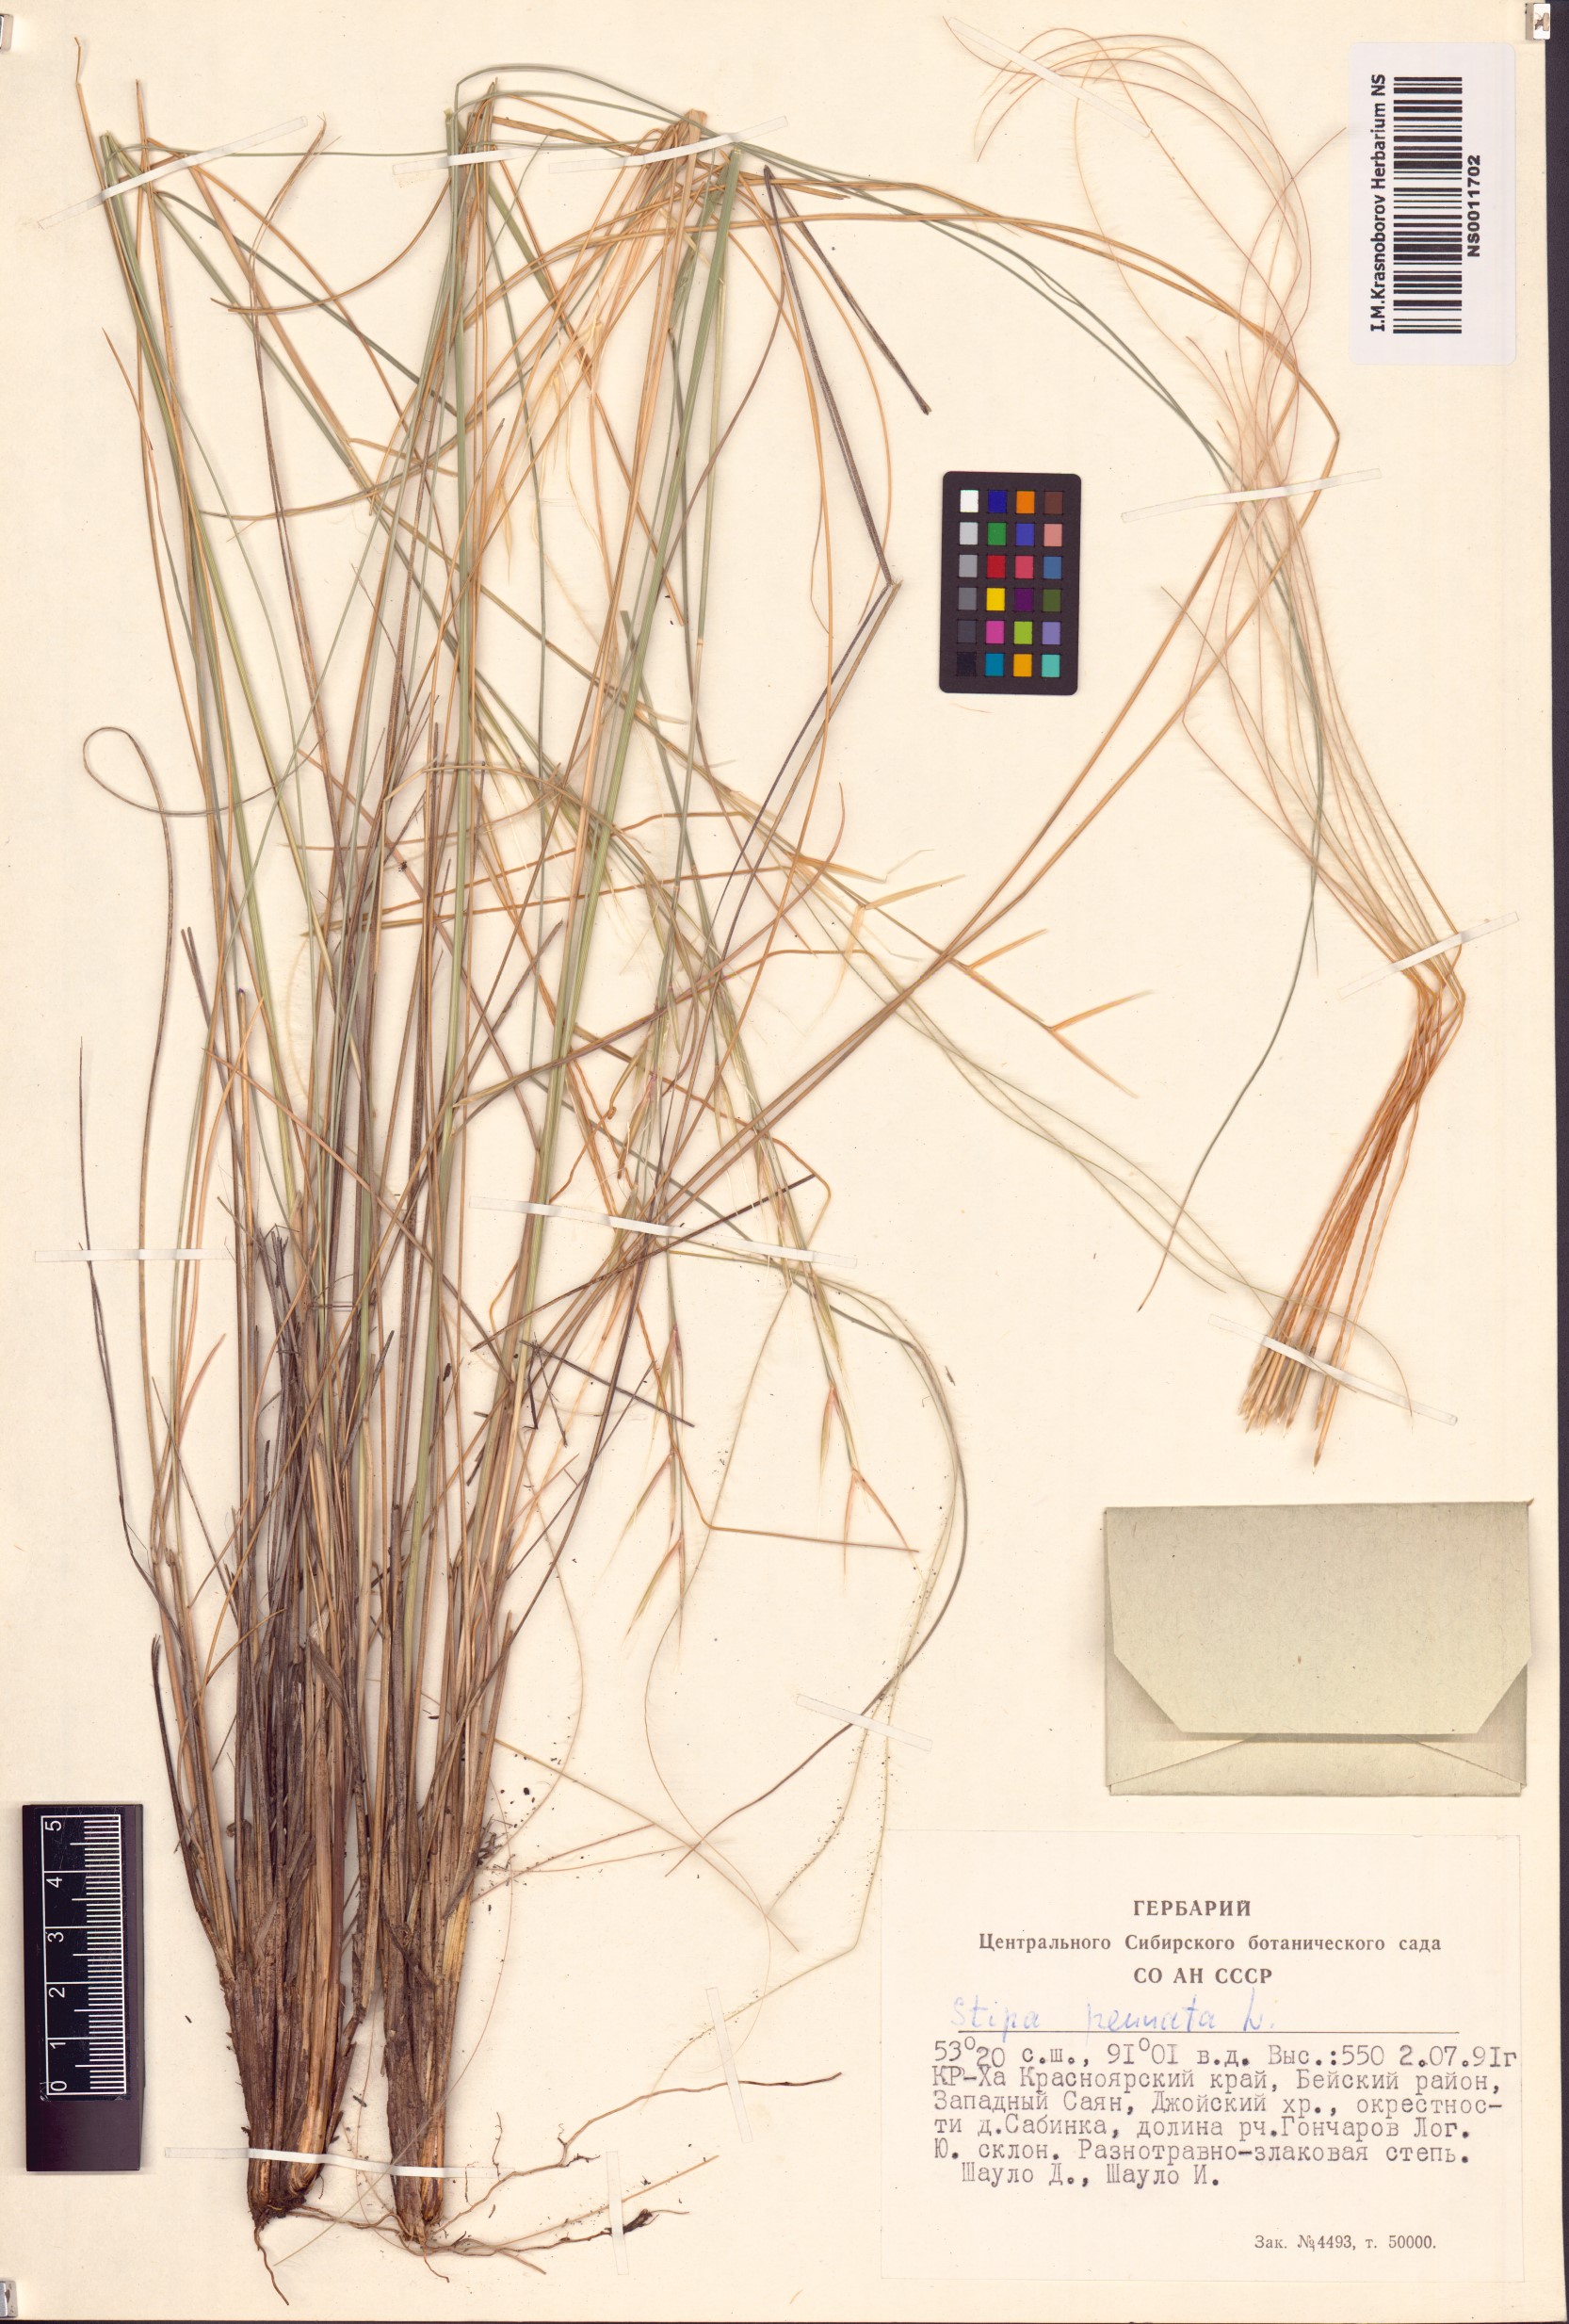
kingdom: Plantae
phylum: Tracheophyta
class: Liliopsida
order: Poales
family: Poaceae
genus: Stipa
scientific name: Stipa pennata
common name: European feather grass
